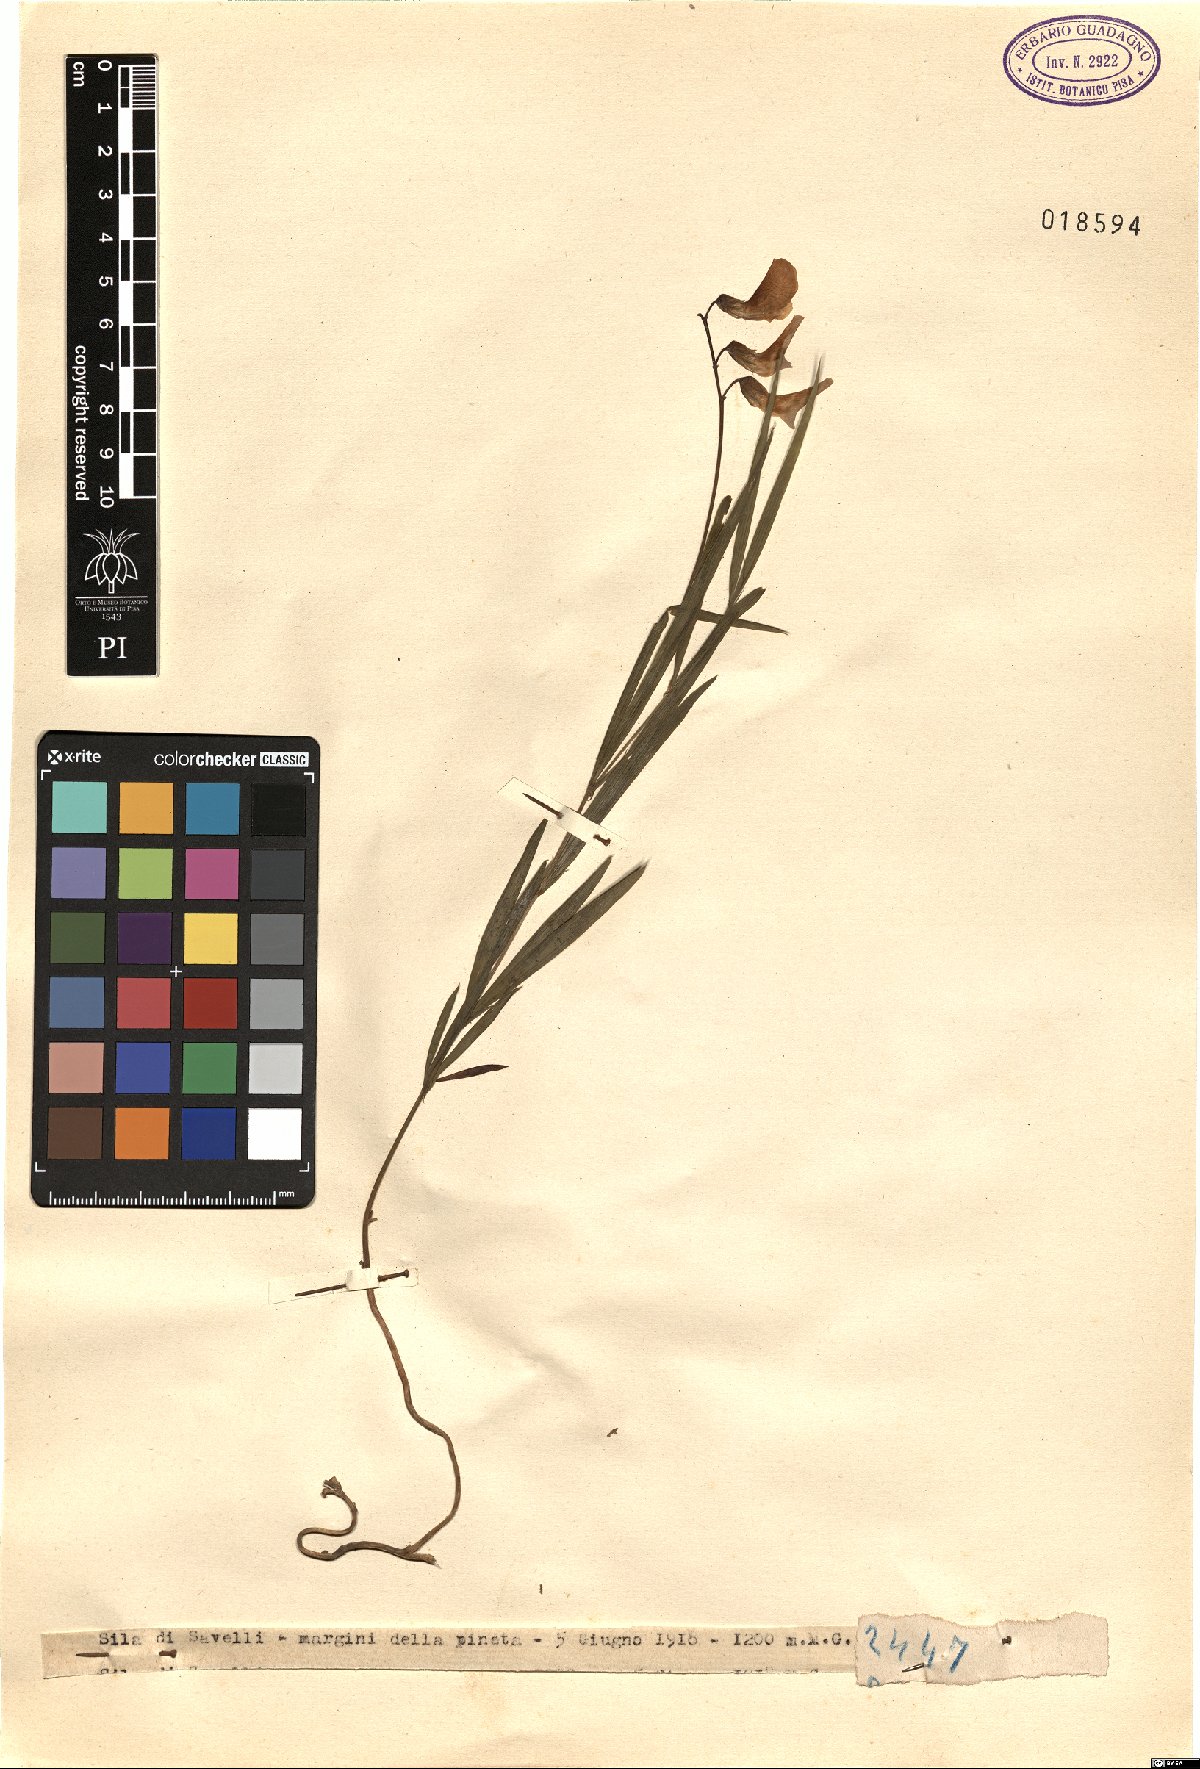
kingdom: Plantae
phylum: Tracheophyta
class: Magnoliopsida
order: Fabales
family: Fabaceae
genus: Lathyrus
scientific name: Lathyrus
